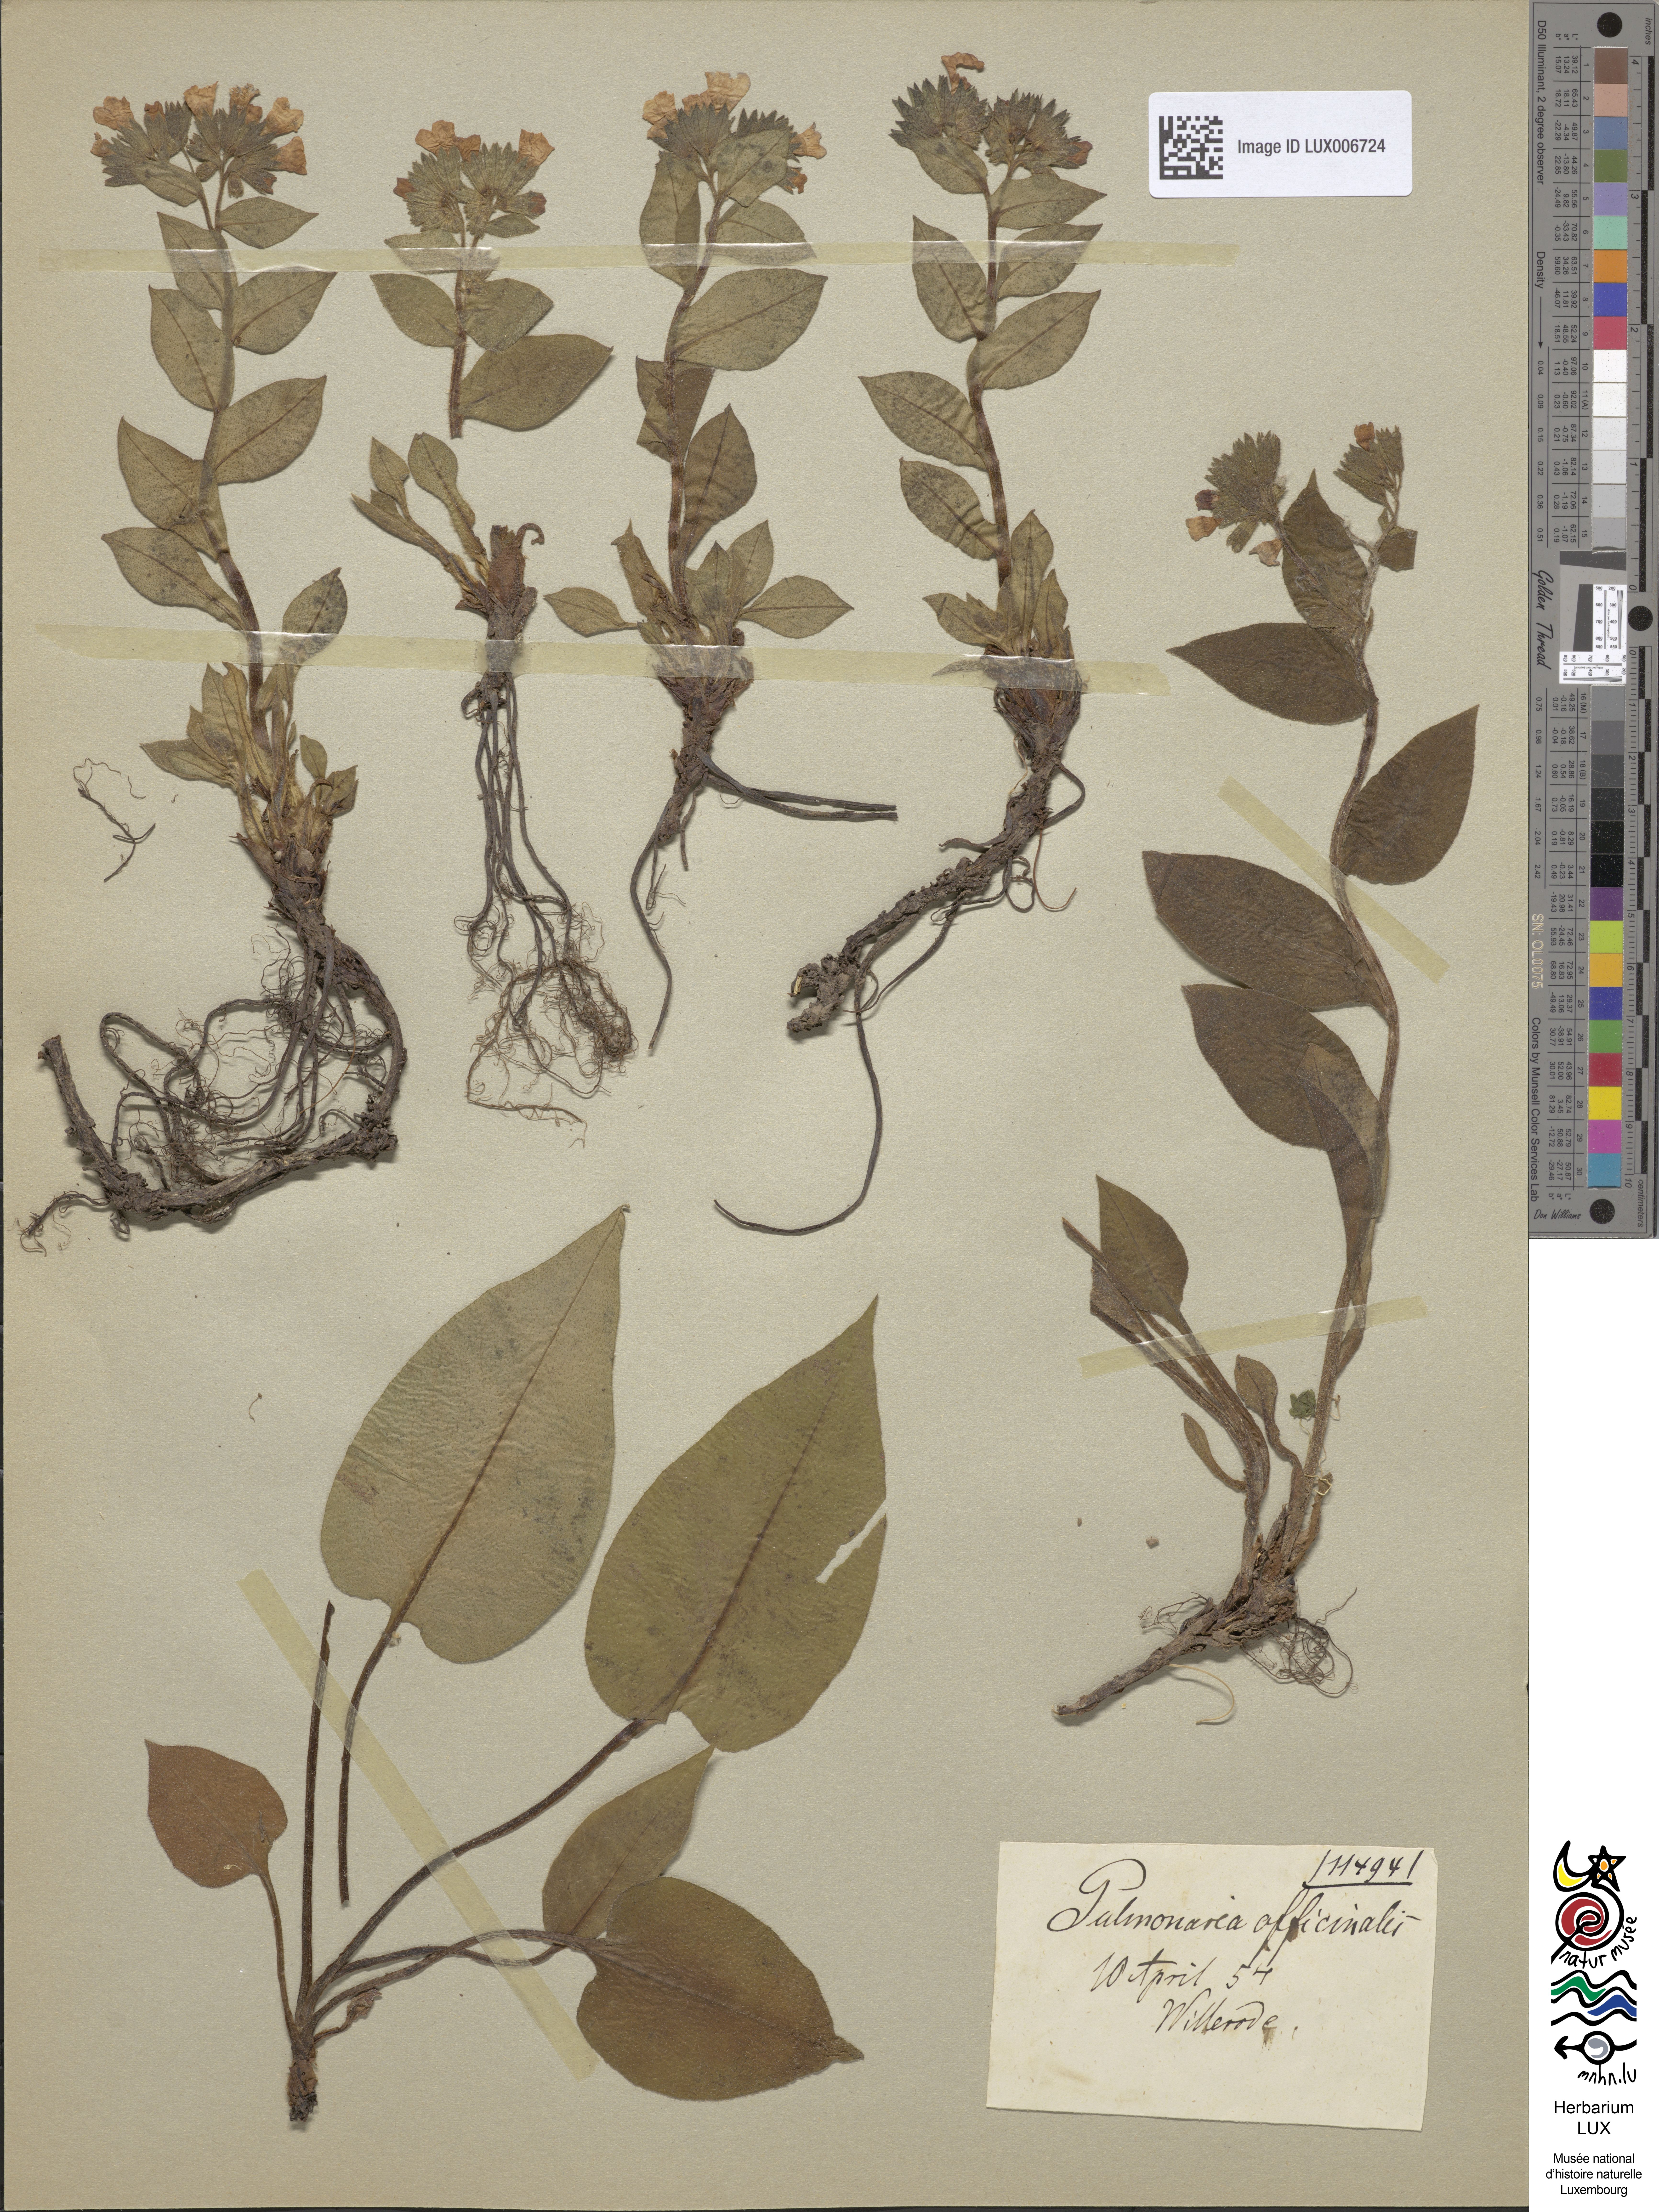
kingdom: Plantae
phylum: Tracheophyta
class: Magnoliopsida
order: Boraginales
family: Boraginaceae
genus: Pulmonaria
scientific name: Pulmonaria officinalis
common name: Lungwort
